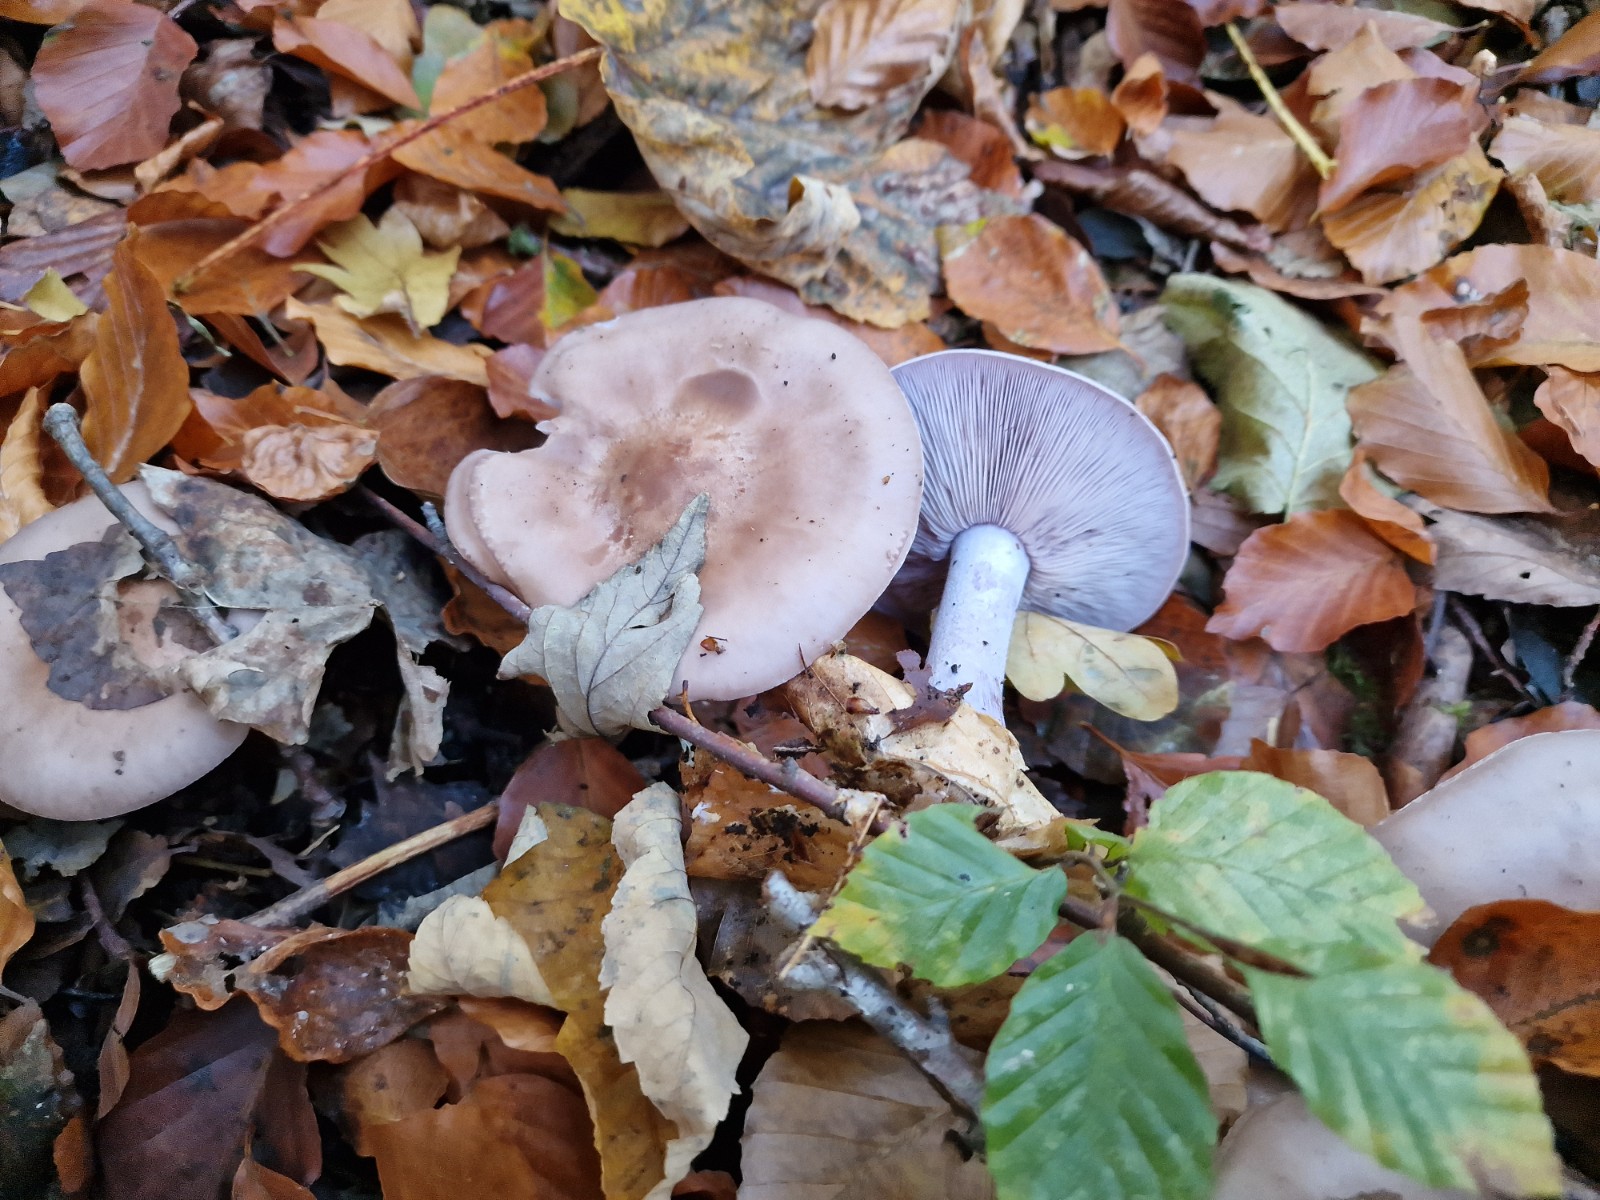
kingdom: Fungi
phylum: Basidiomycota
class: Agaricomycetes
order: Agaricales
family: Tricholomataceae
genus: Lepista
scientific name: Lepista nuda
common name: violet hekseringshat
